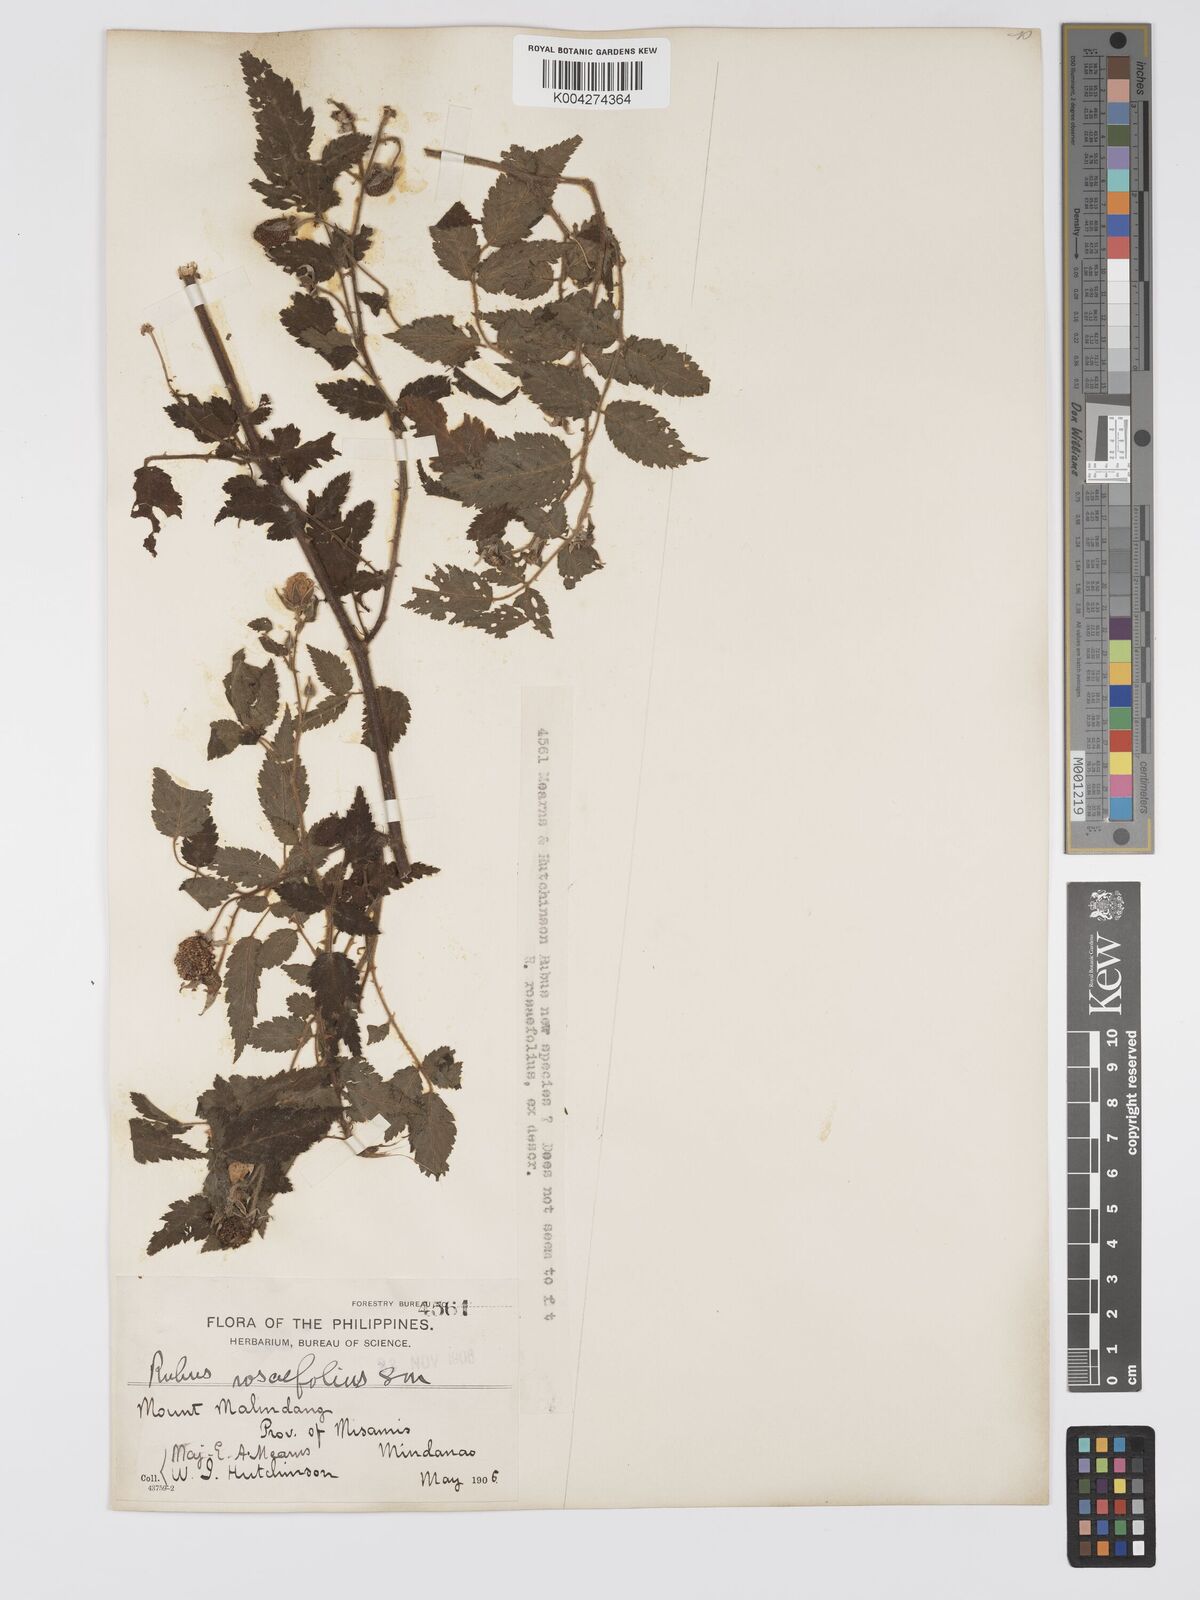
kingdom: Plantae
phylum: Tracheophyta
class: Magnoliopsida
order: Rosales
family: Rosaceae
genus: Rubus
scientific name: Rubus
